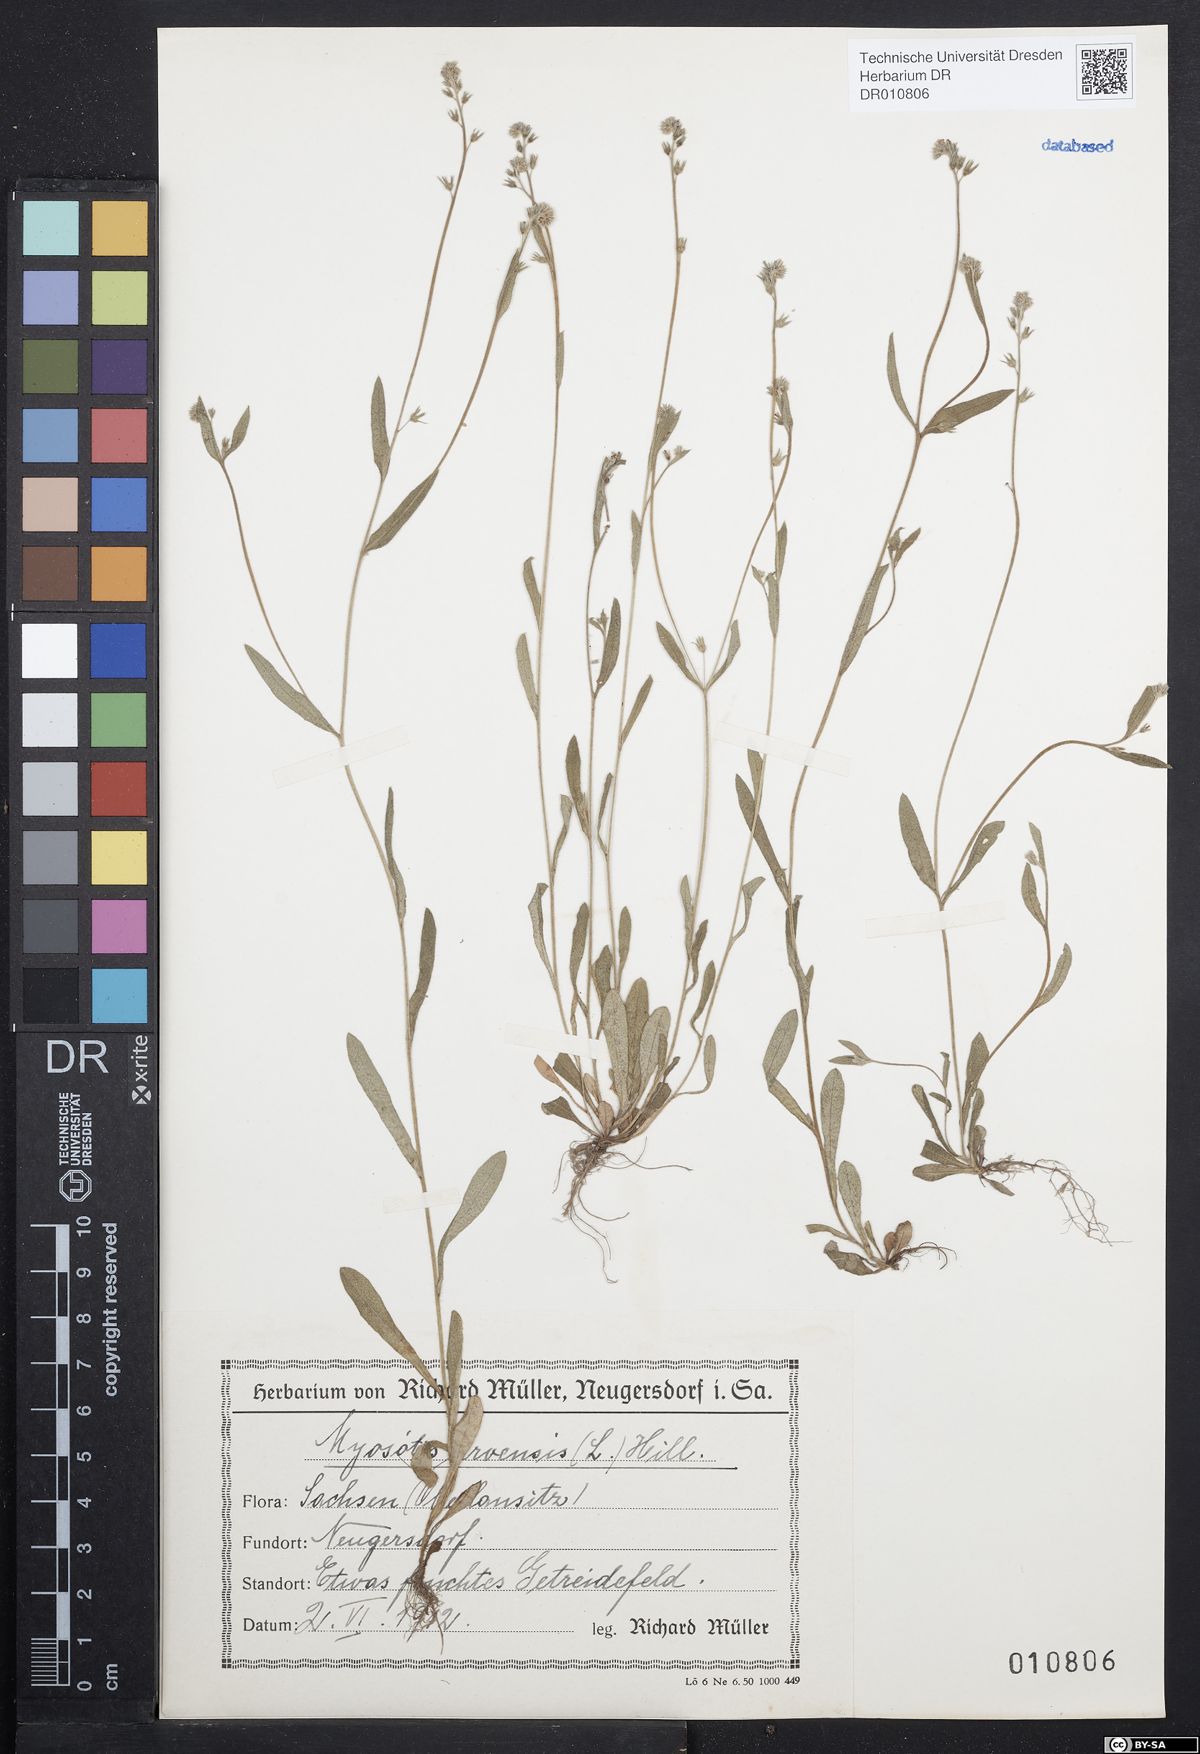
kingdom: Plantae
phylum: Tracheophyta
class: Magnoliopsida
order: Boraginales
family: Boraginaceae
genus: Myosotis
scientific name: Myosotis arvensis
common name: Field forget-me-not
